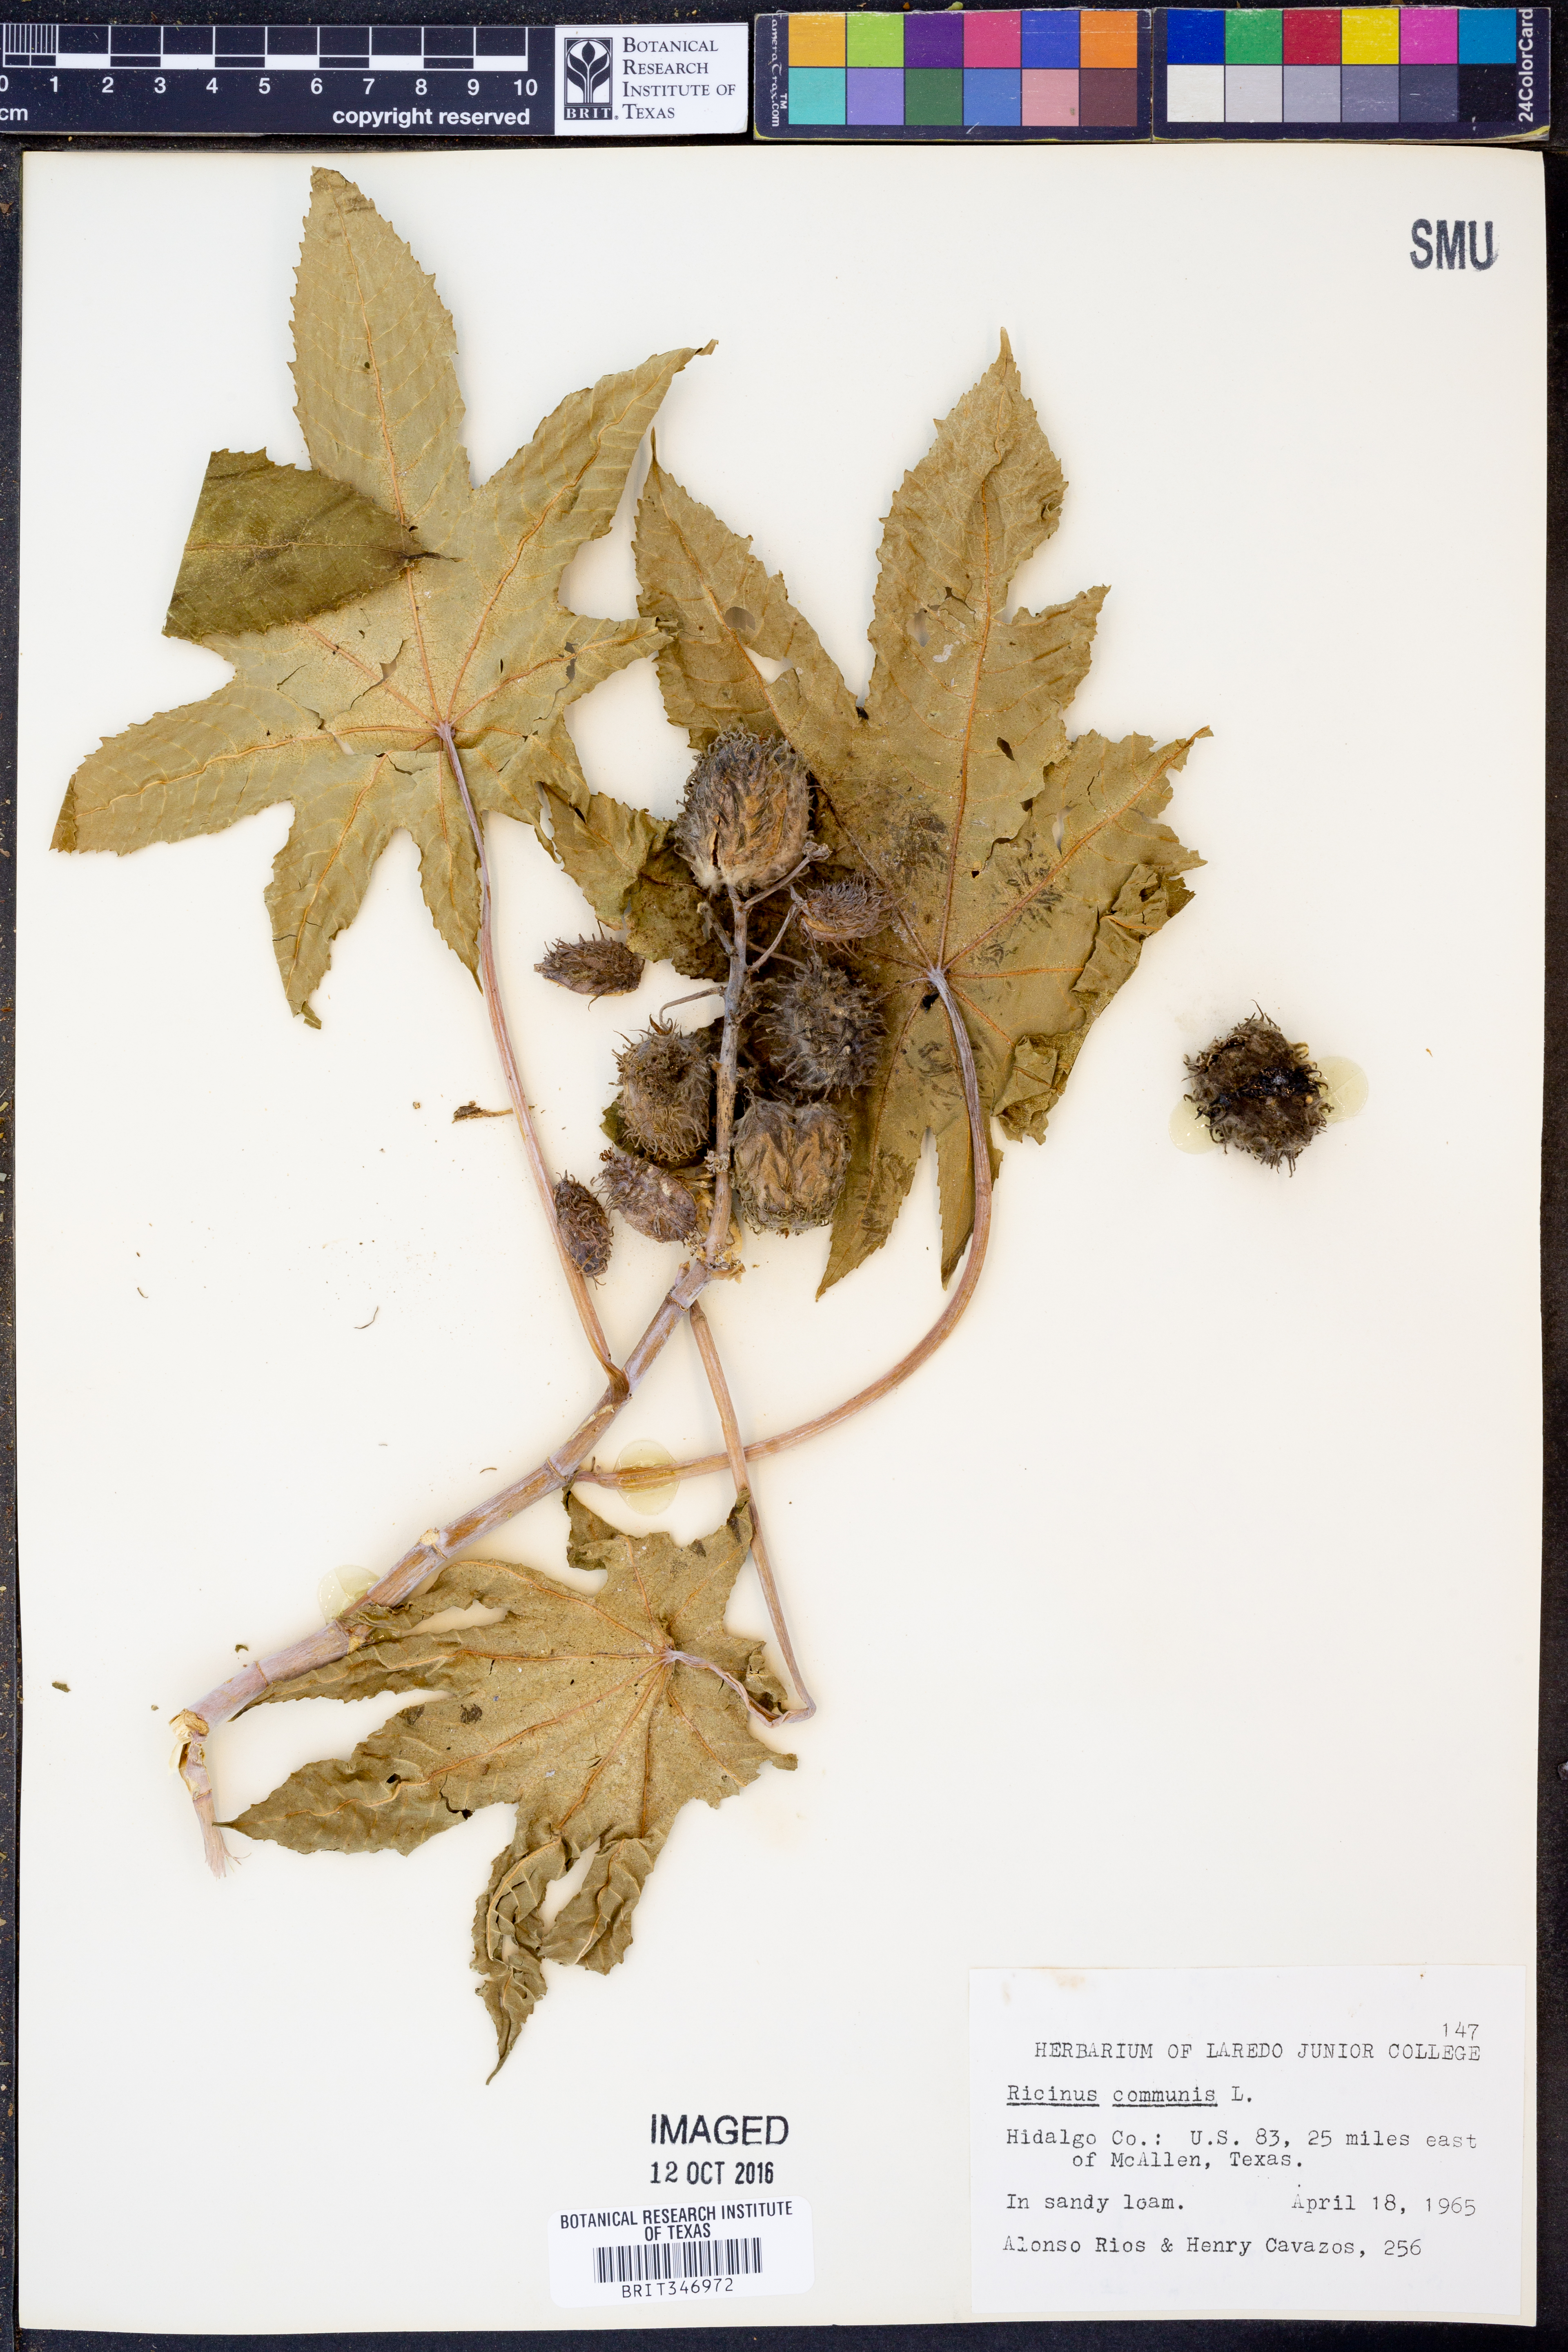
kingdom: Plantae
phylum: Tracheophyta
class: Magnoliopsida
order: Malpighiales
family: Euphorbiaceae
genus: Ricinus
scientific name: Ricinus communis
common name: Castor-oil-plant
